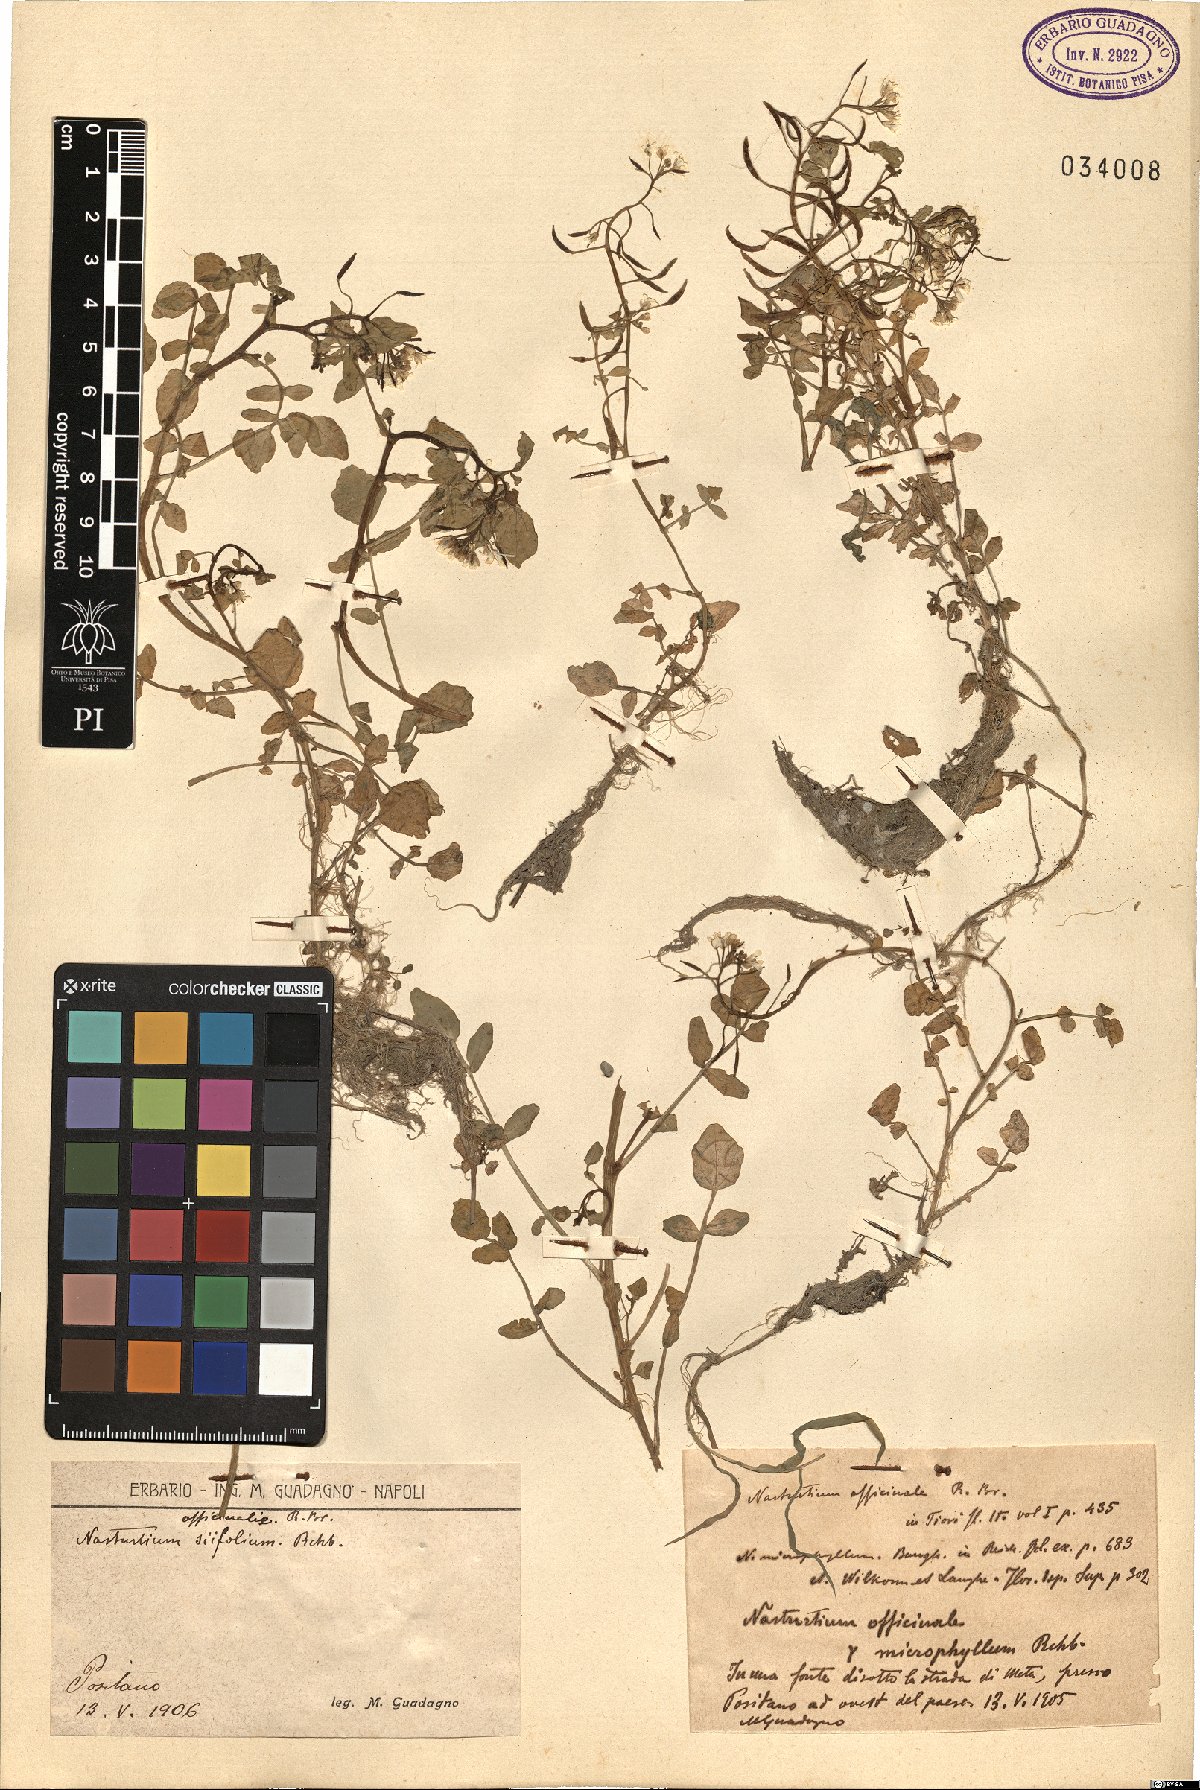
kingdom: Plantae
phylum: Tracheophyta
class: Magnoliopsida
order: Brassicales
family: Brassicaceae
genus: Nasturtium
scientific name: Nasturtium officinale
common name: Watercress
